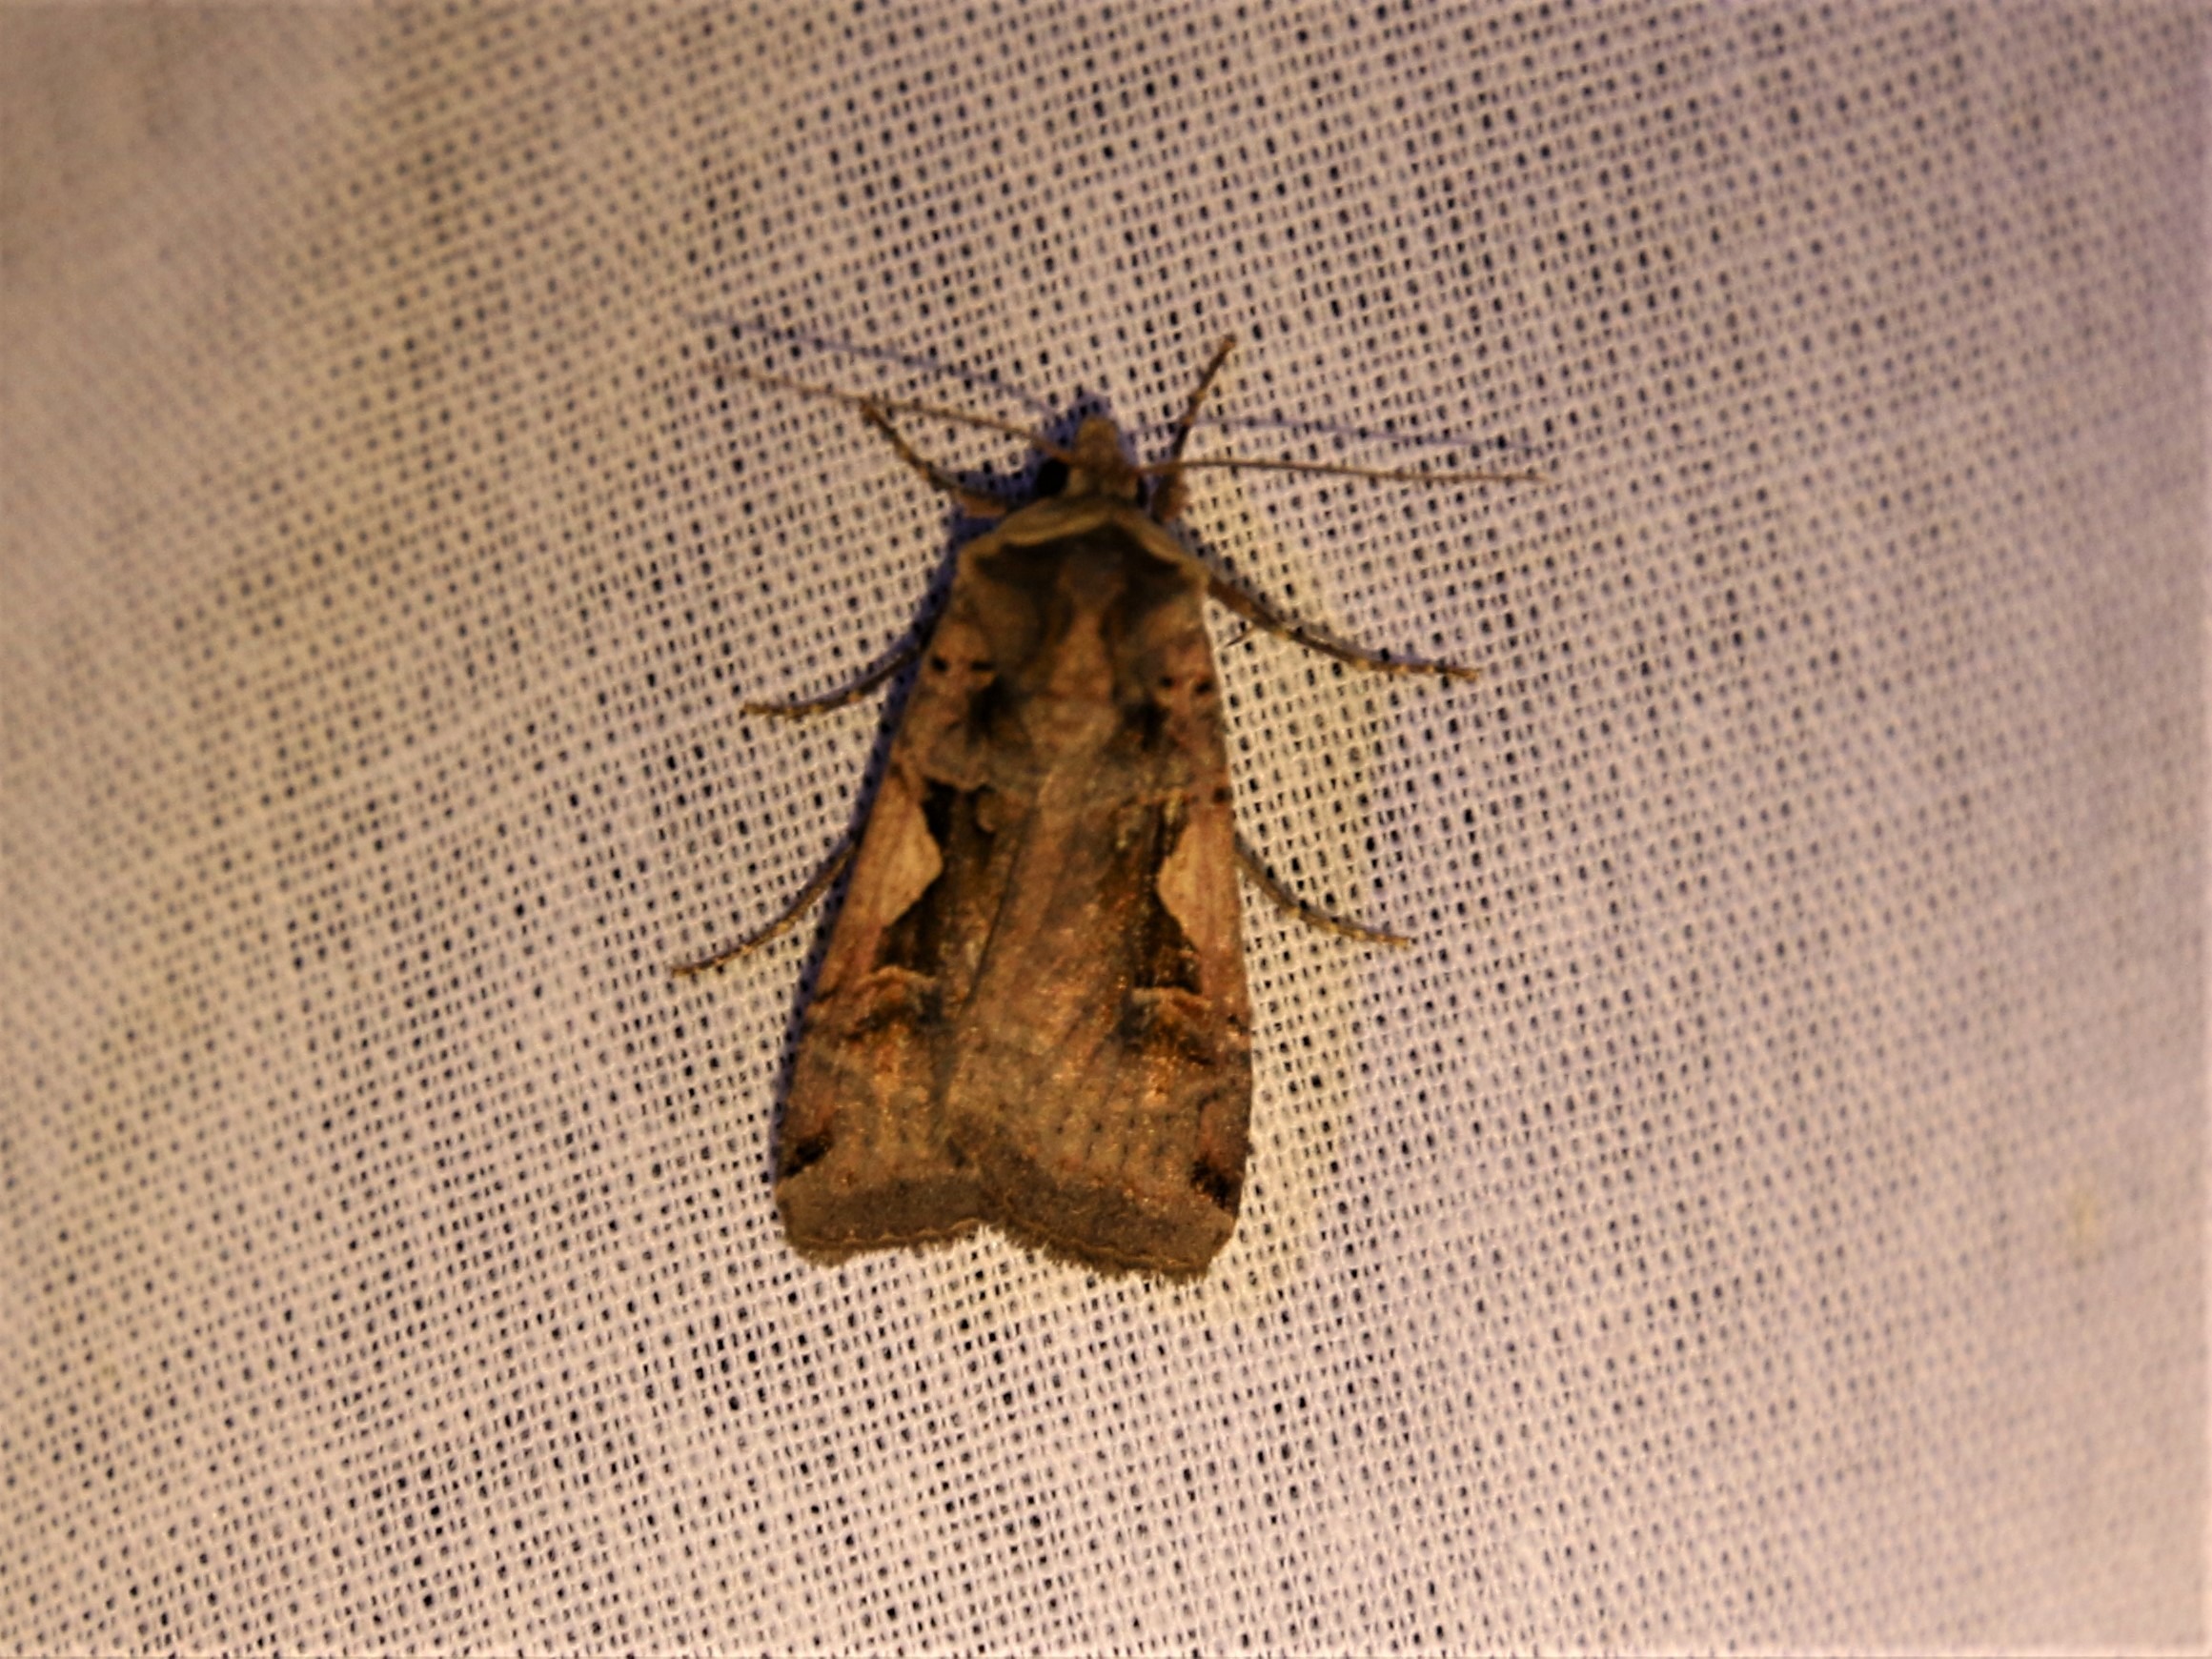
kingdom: Animalia
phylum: Arthropoda
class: Insecta
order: Lepidoptera
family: Noctuidae
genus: Xestia
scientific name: Xestia c-nigrum
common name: Det sorte c
